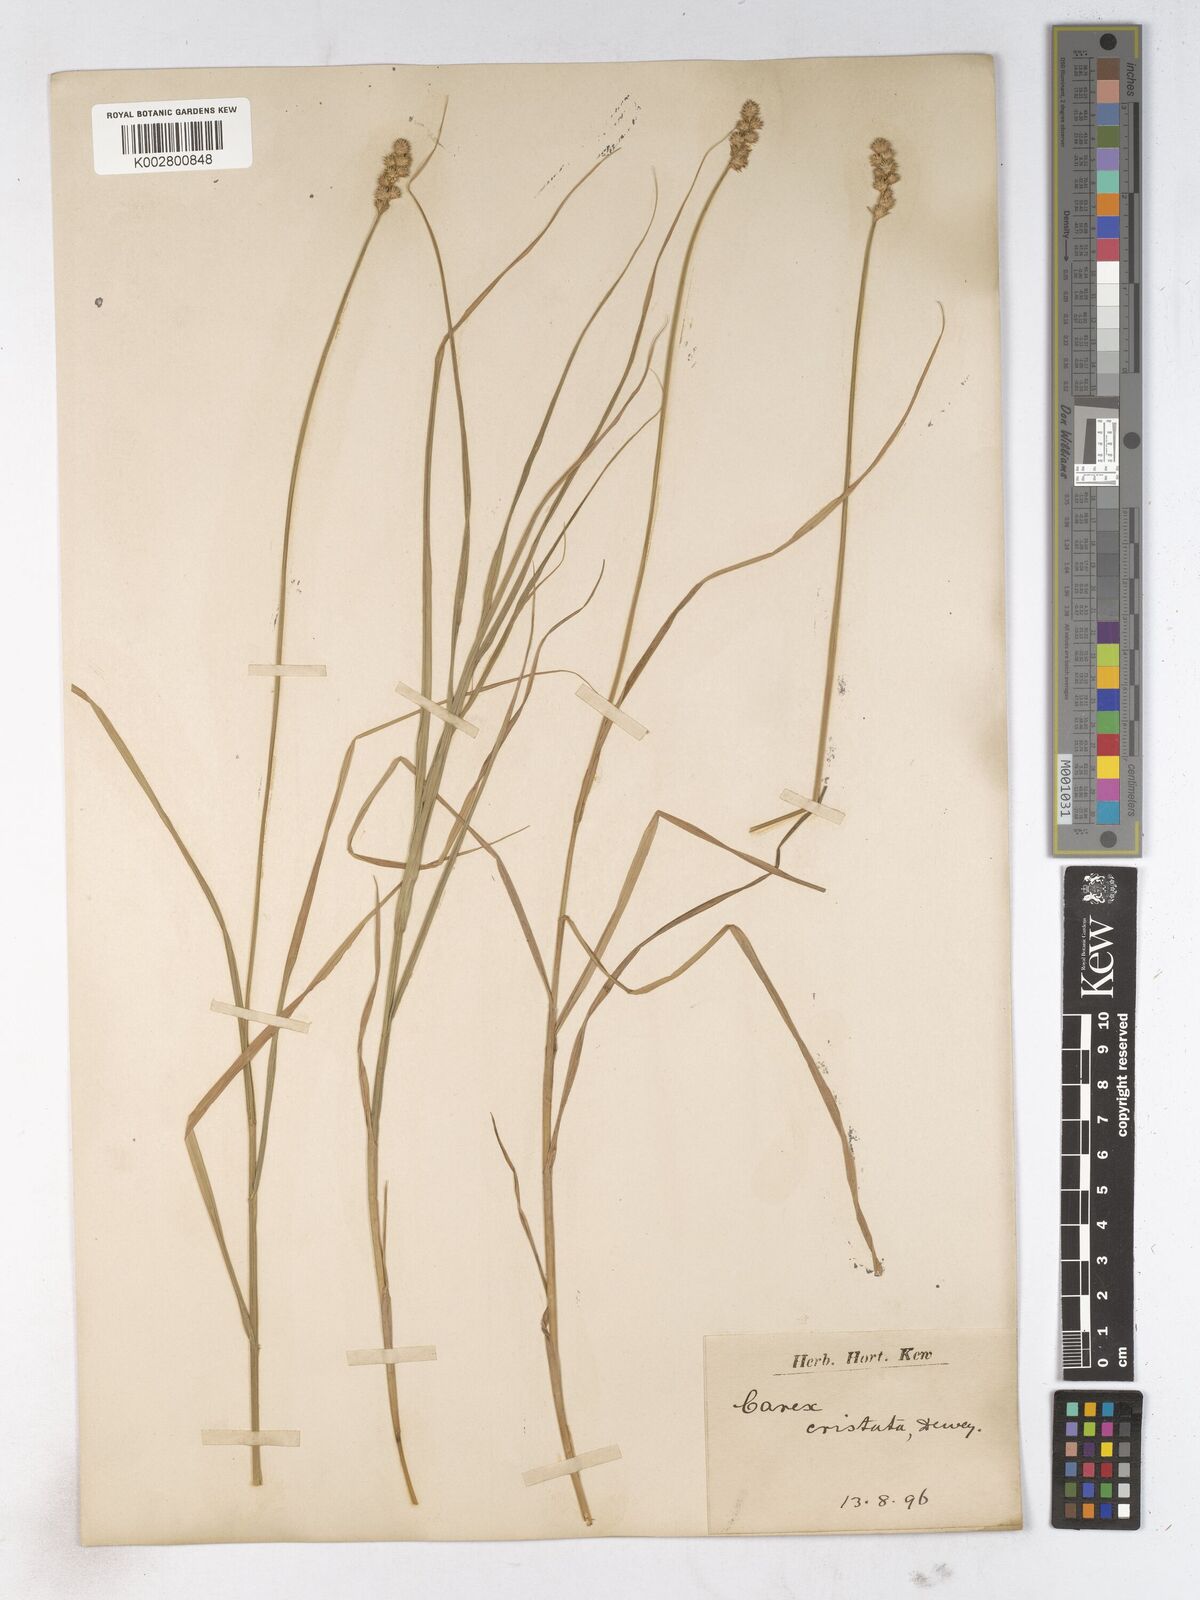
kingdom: Plantae
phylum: Tracheophyta
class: Liliopsida
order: Poales
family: Cyperaceae
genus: Carex
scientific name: Carex comans
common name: Longwood tussock
